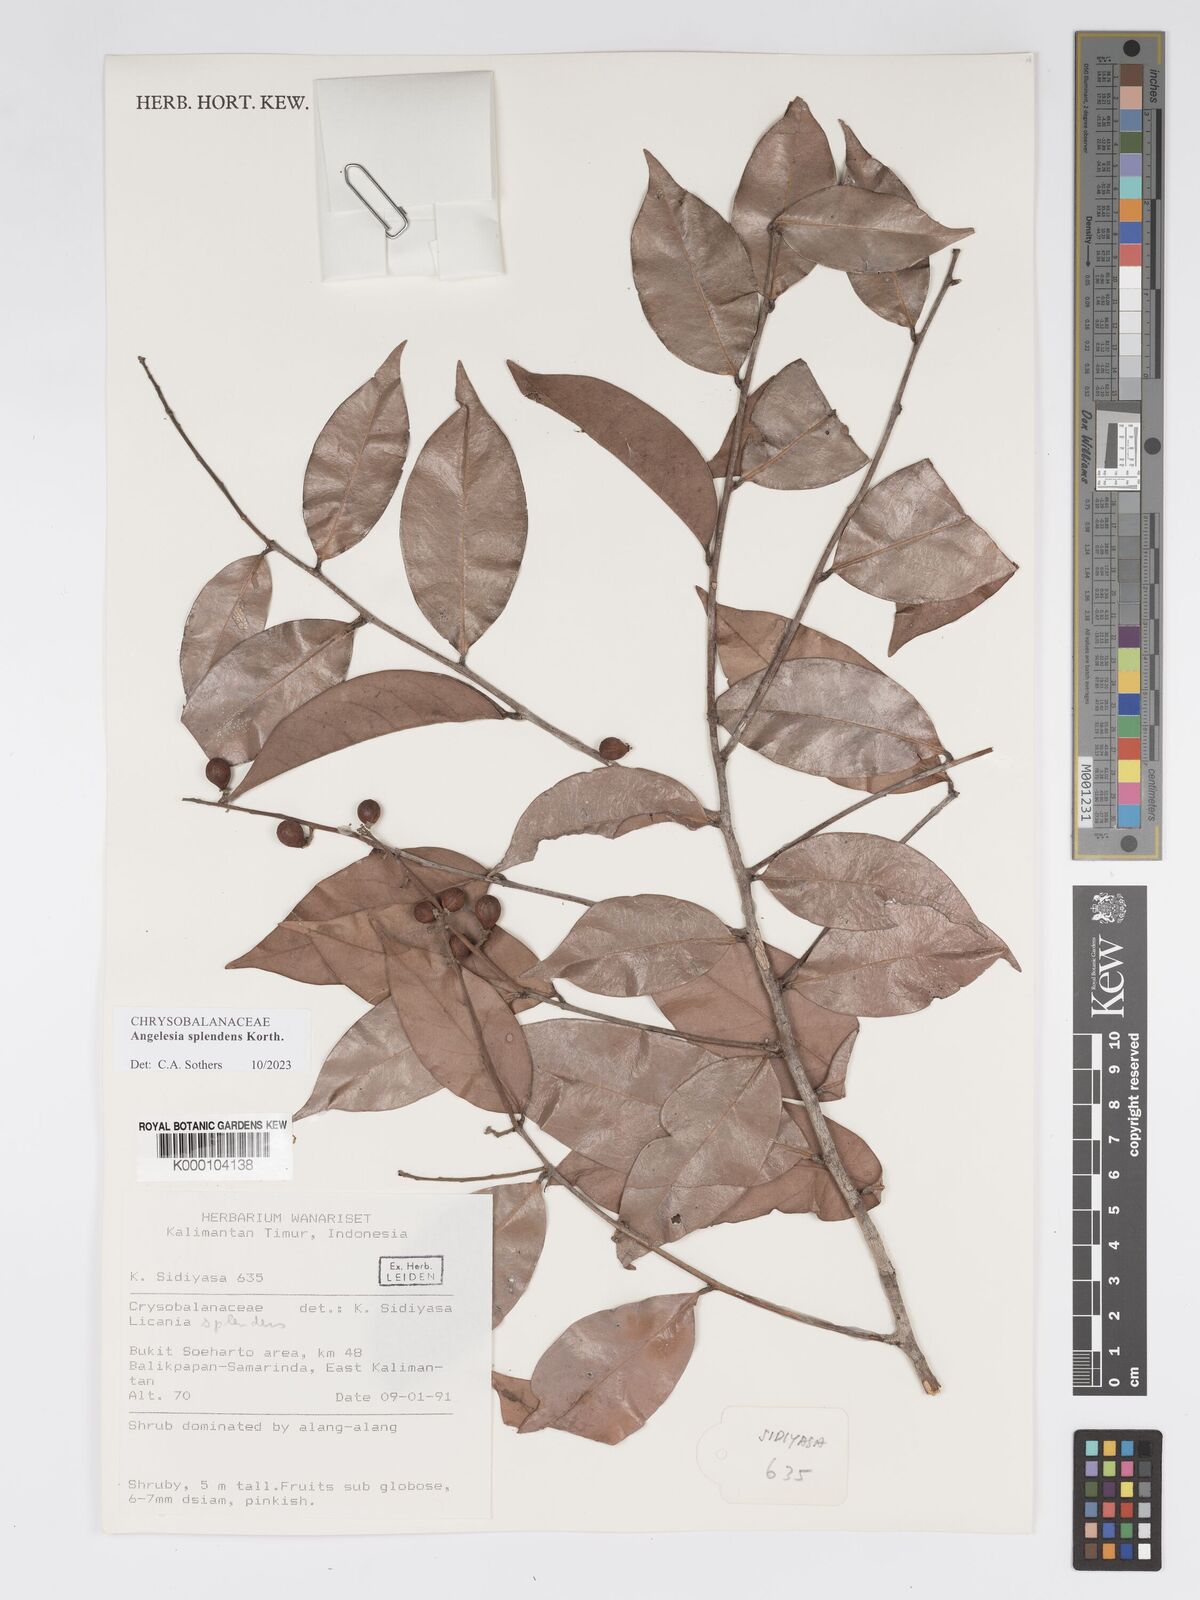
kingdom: Plantae
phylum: Tracheophyta
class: Magnoliopsida
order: Malpighiales
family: Chrysobalanaceae
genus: Angelesia
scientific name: Angelesia splendens
